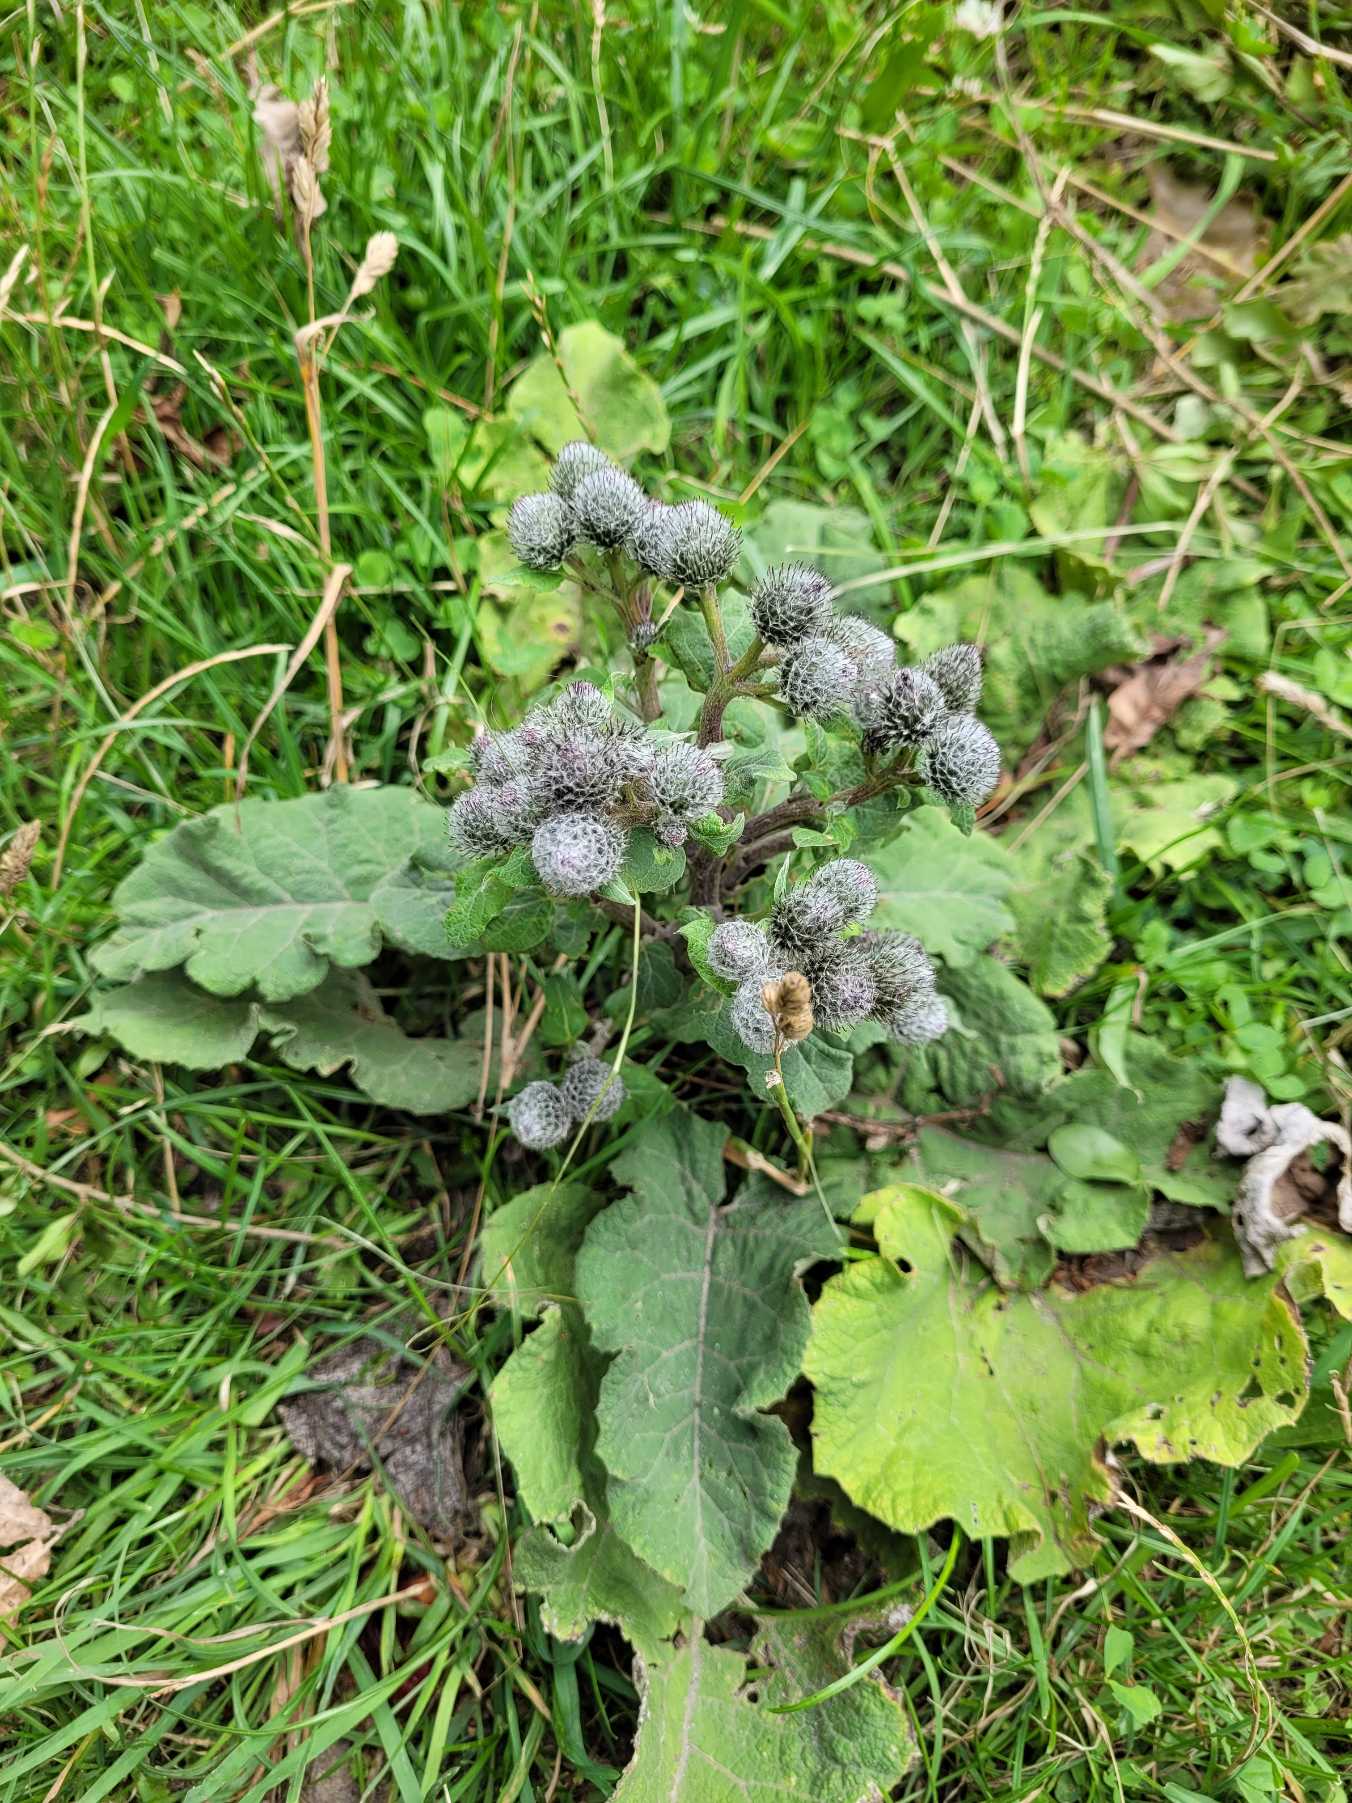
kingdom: Plantae
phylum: Tracheophyta
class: Magnoliopsida
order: Asterales
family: Asteraceae
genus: Arctium
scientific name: Arctium tomentosum
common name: Filtet burre
